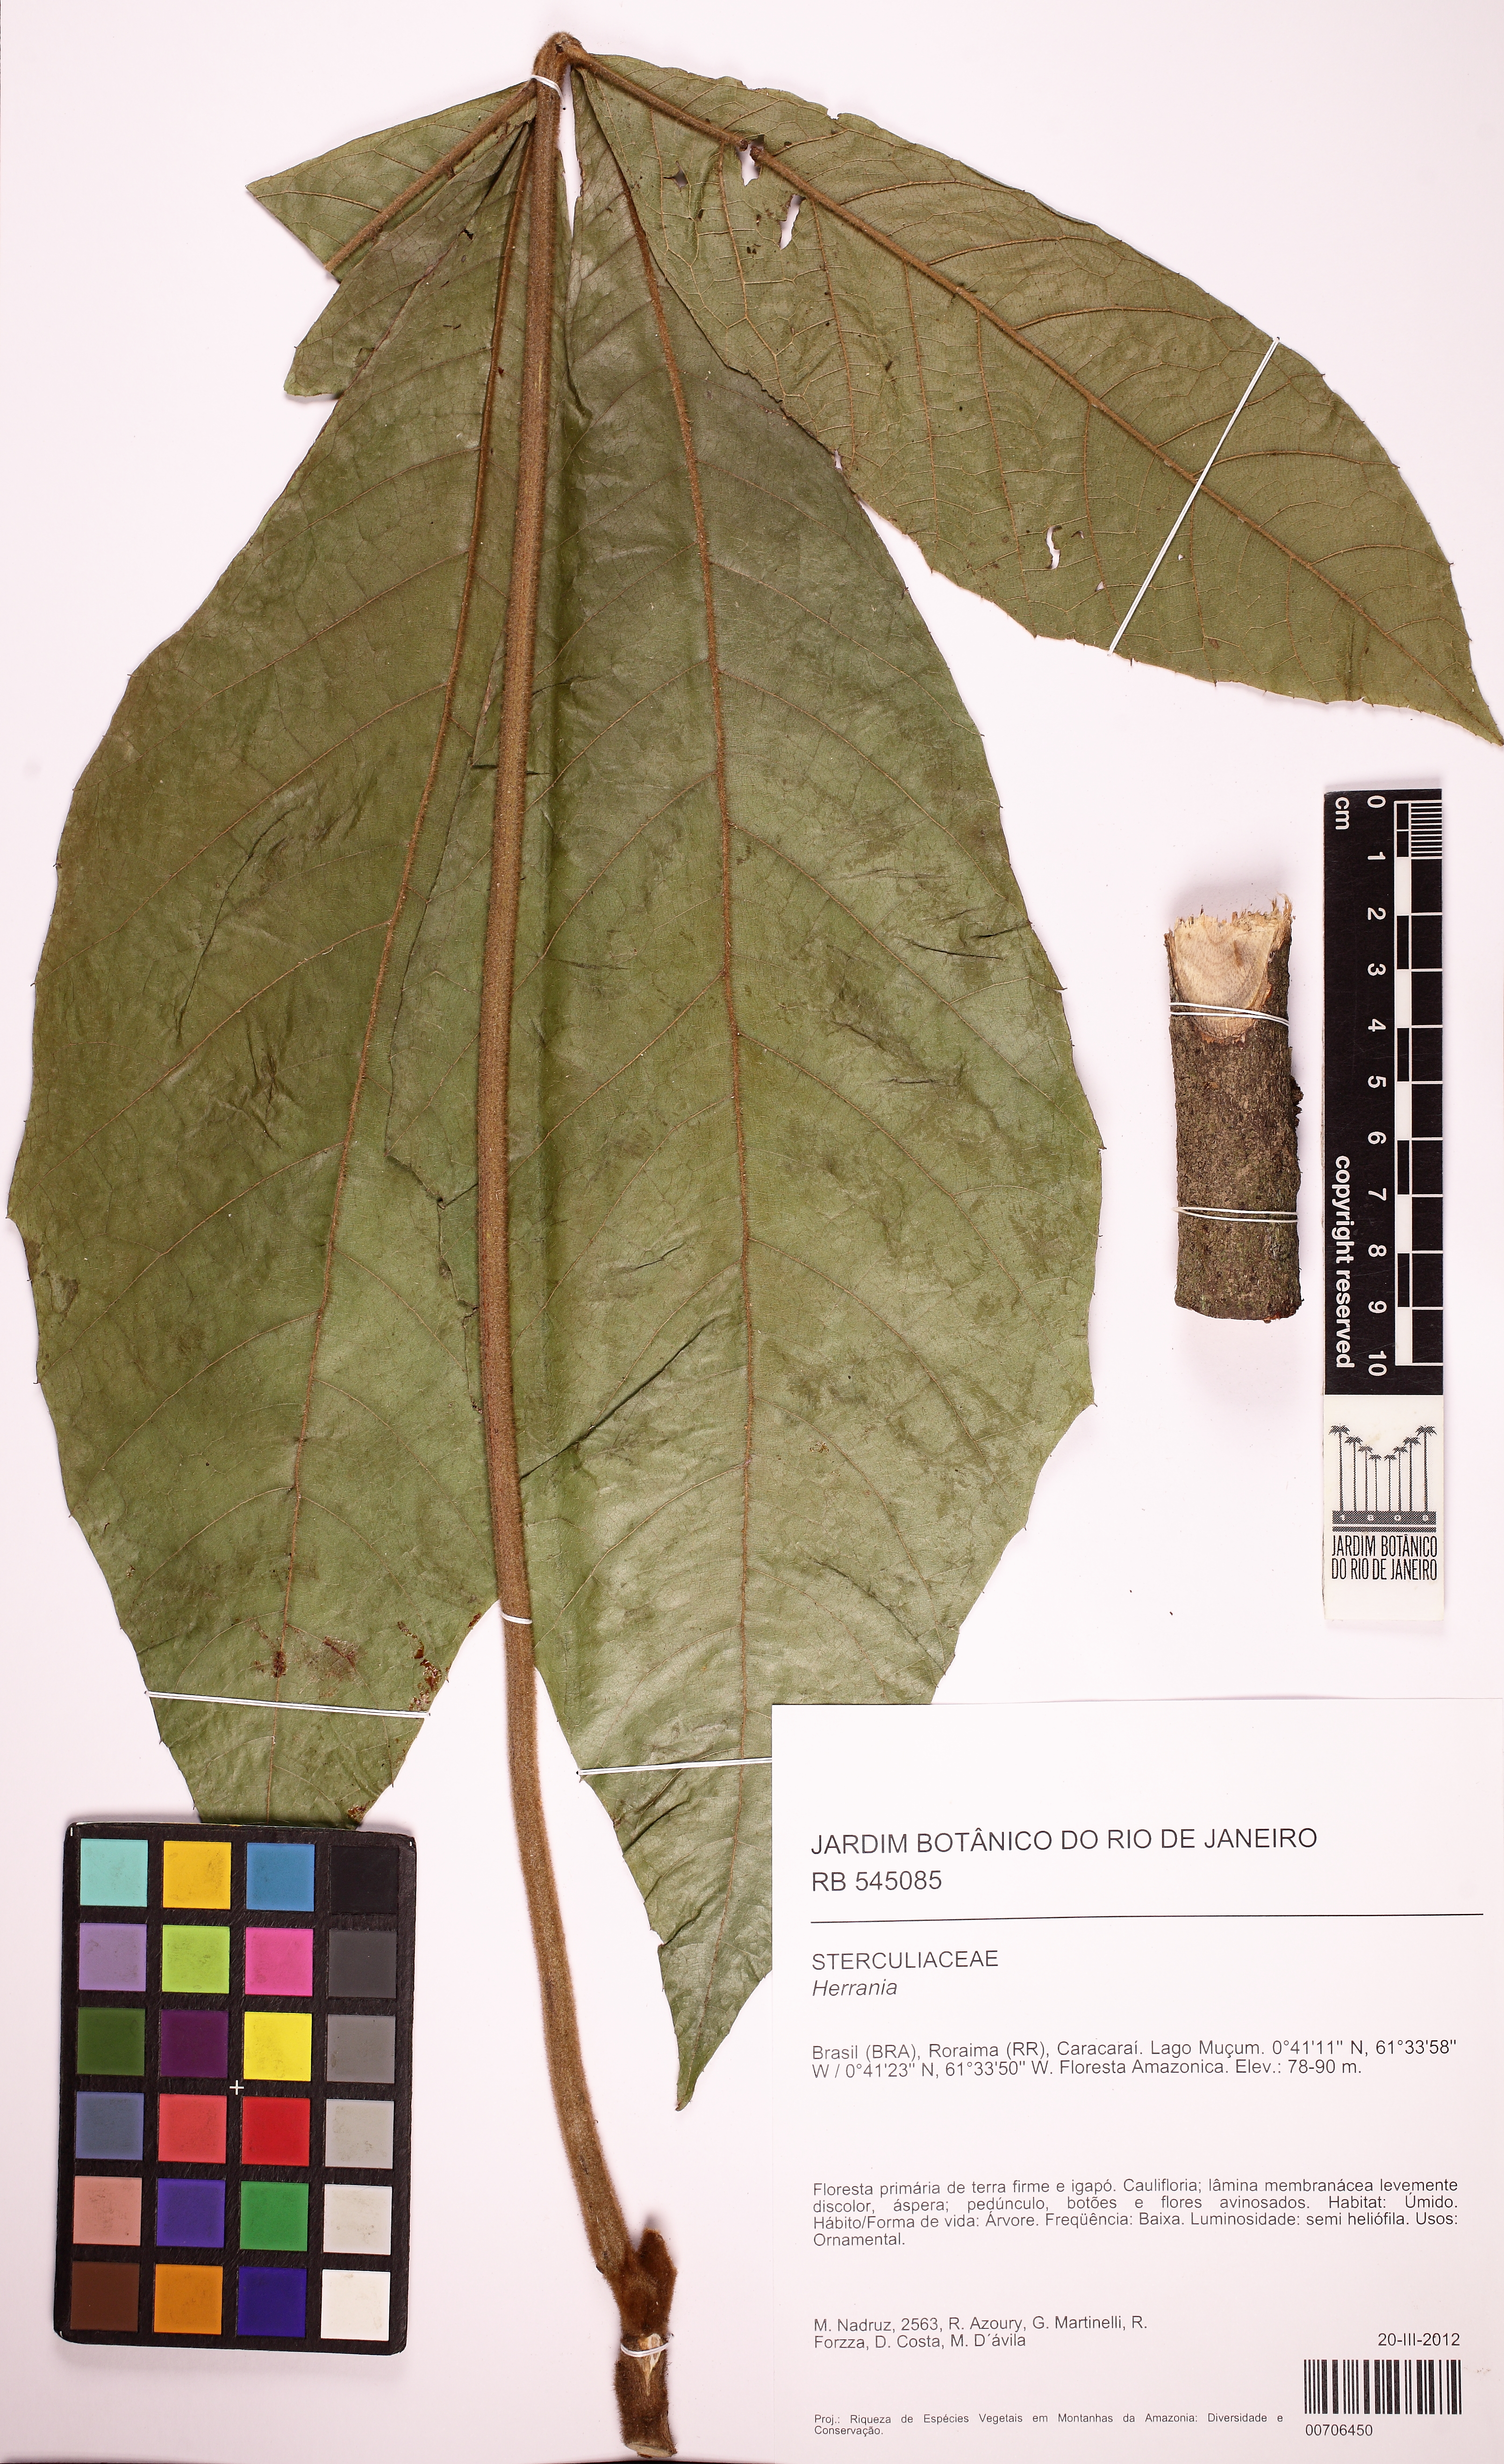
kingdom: Plantae
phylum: Tracheophyta
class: Magnoliopsida
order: Malvales
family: Malvaceae
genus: Herrania
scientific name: Herrania mariae
